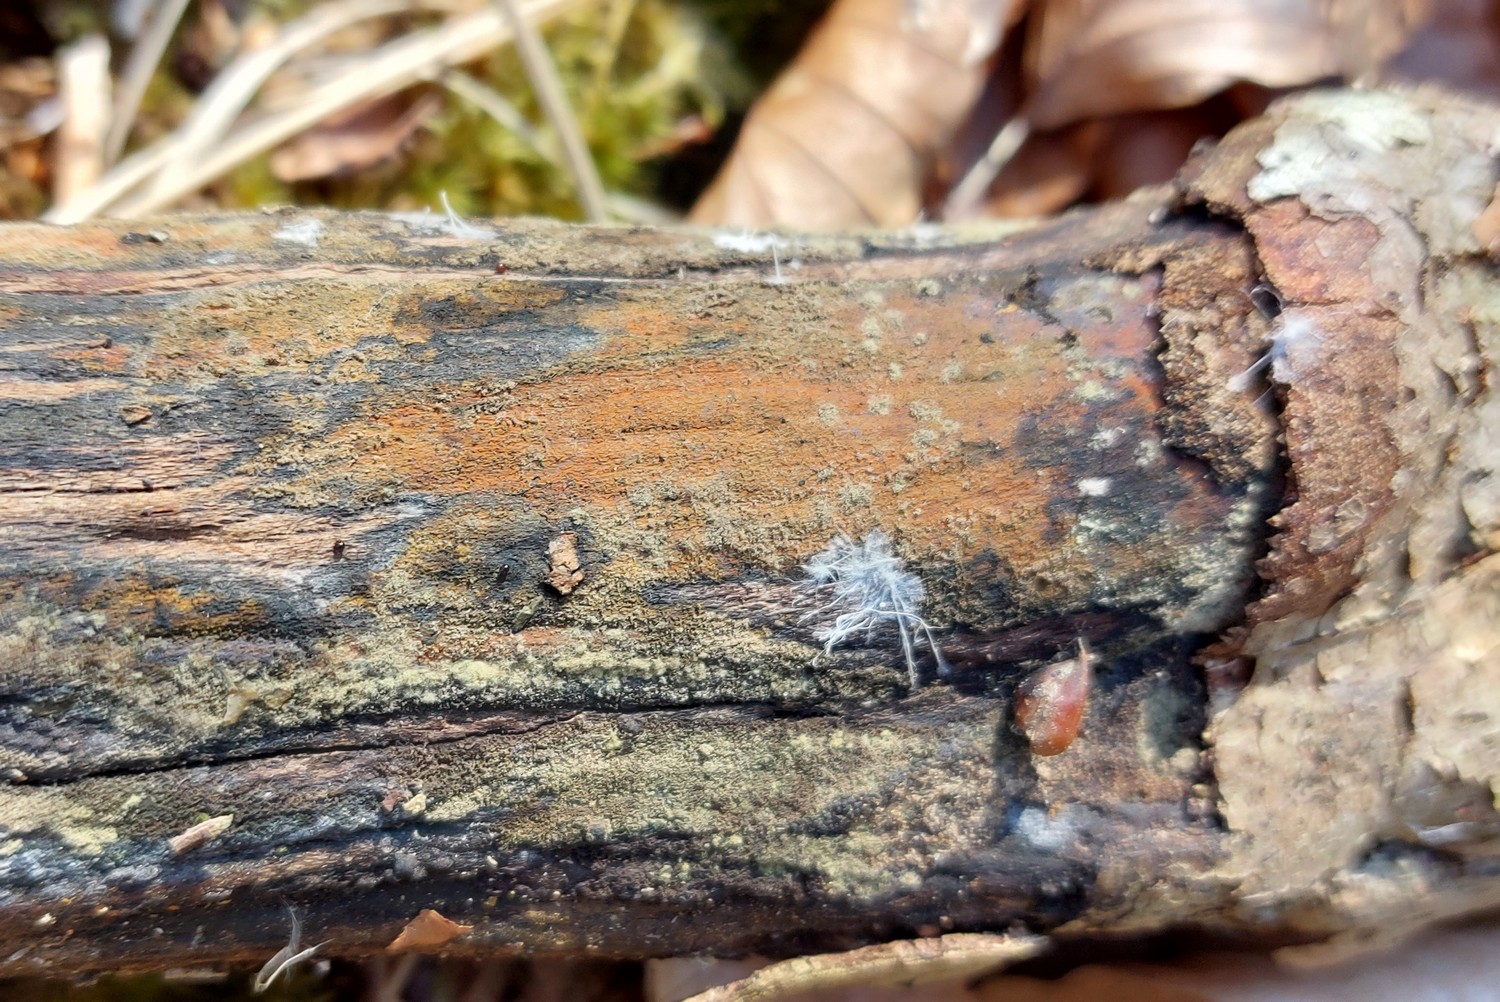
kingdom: Fungi
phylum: Ascomycota
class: Sordariomycetes
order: Xylariales
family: Hypoxylaceae
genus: Hypoxylon
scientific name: Hypoxylon
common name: kulbær
